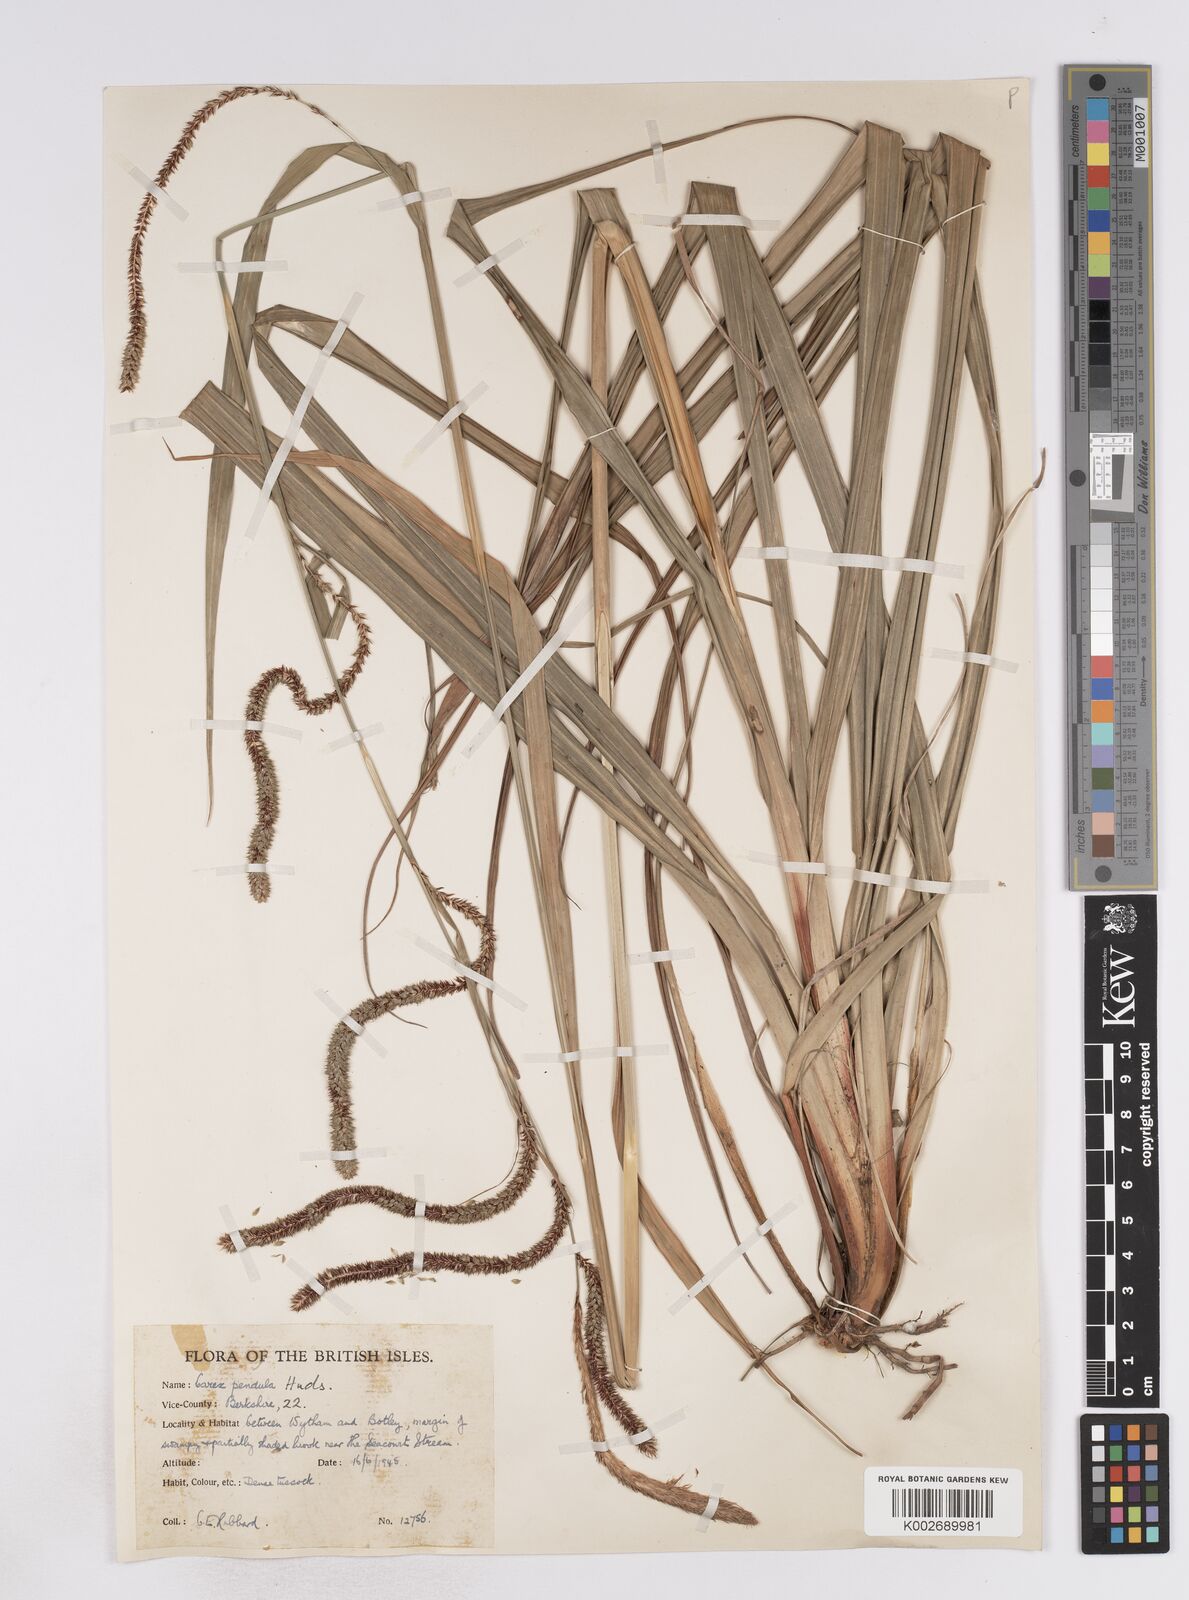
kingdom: Plantae
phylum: Tracheophyta
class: Liliopsida
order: Poales
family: Cyperaceae
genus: Carex
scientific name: Carex pendula
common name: Pendulous sedge
